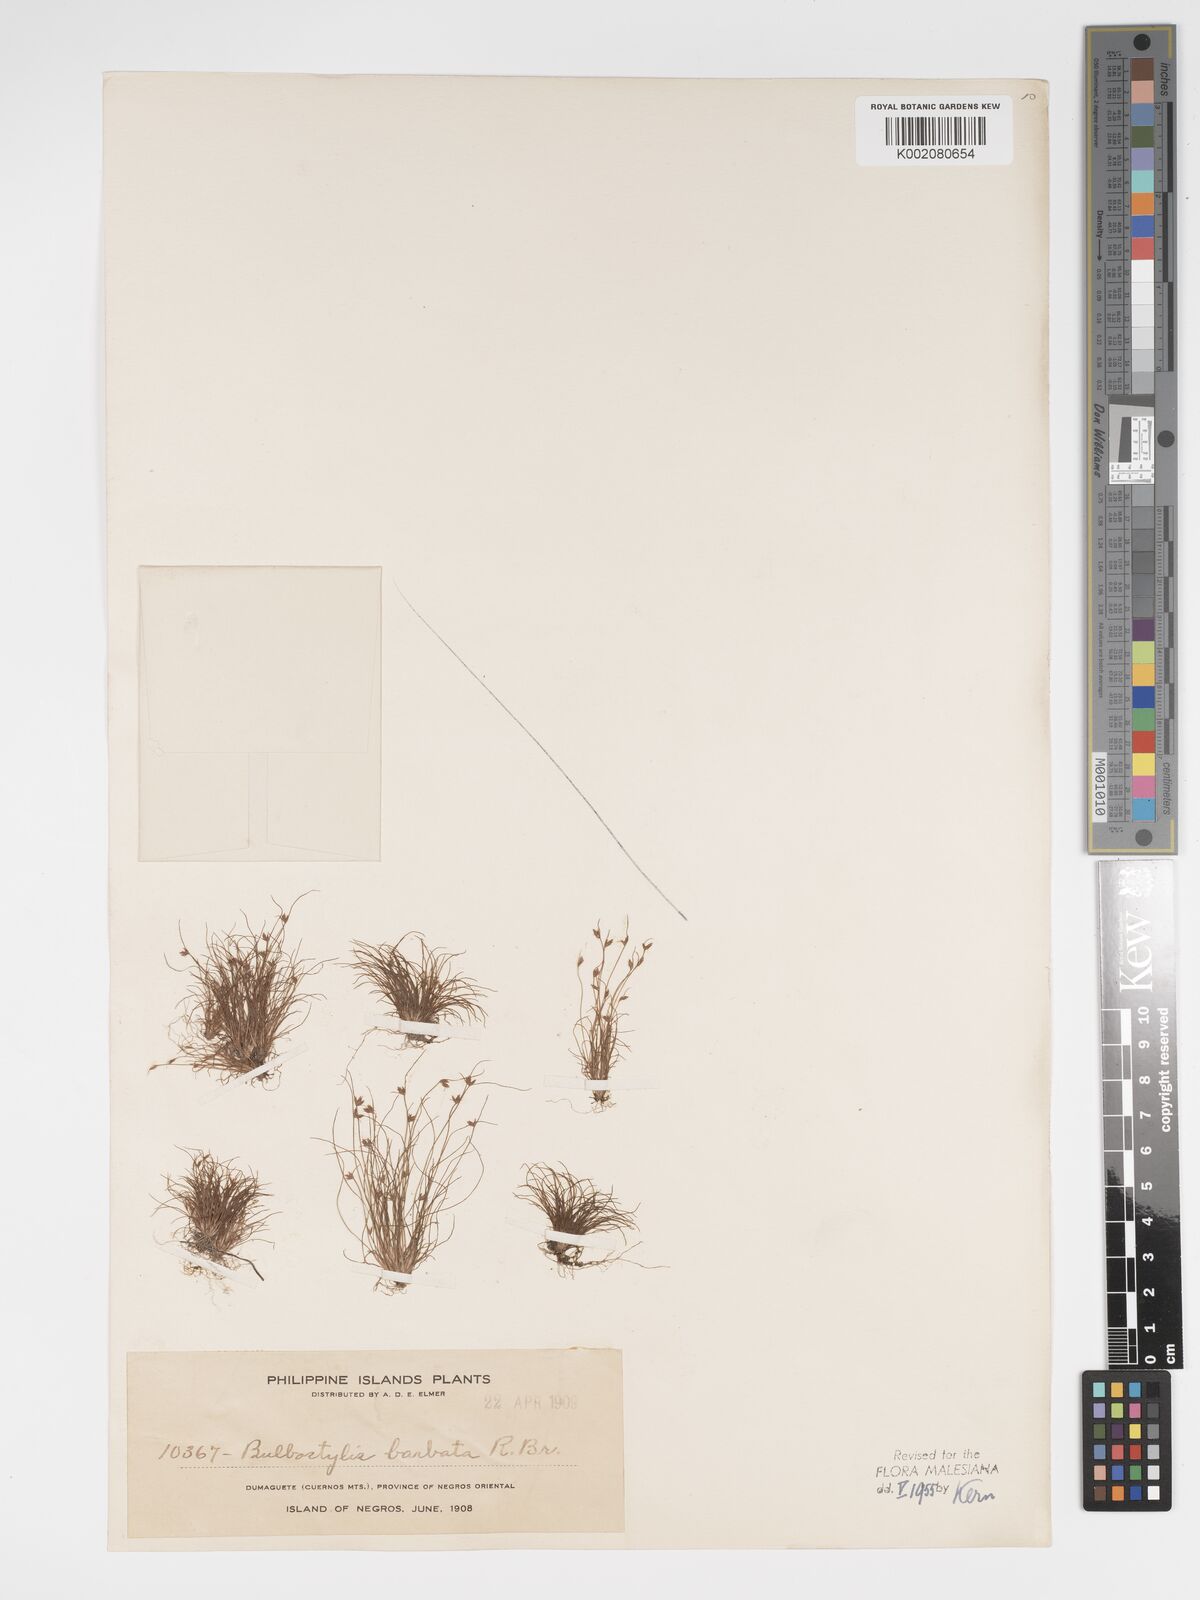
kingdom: Plantae
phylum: Tracheophyta
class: Liliopsida
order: Poales
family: Cyperaceae
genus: Bulbostylis
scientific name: Bulbostylis barbata
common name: Watergrass
